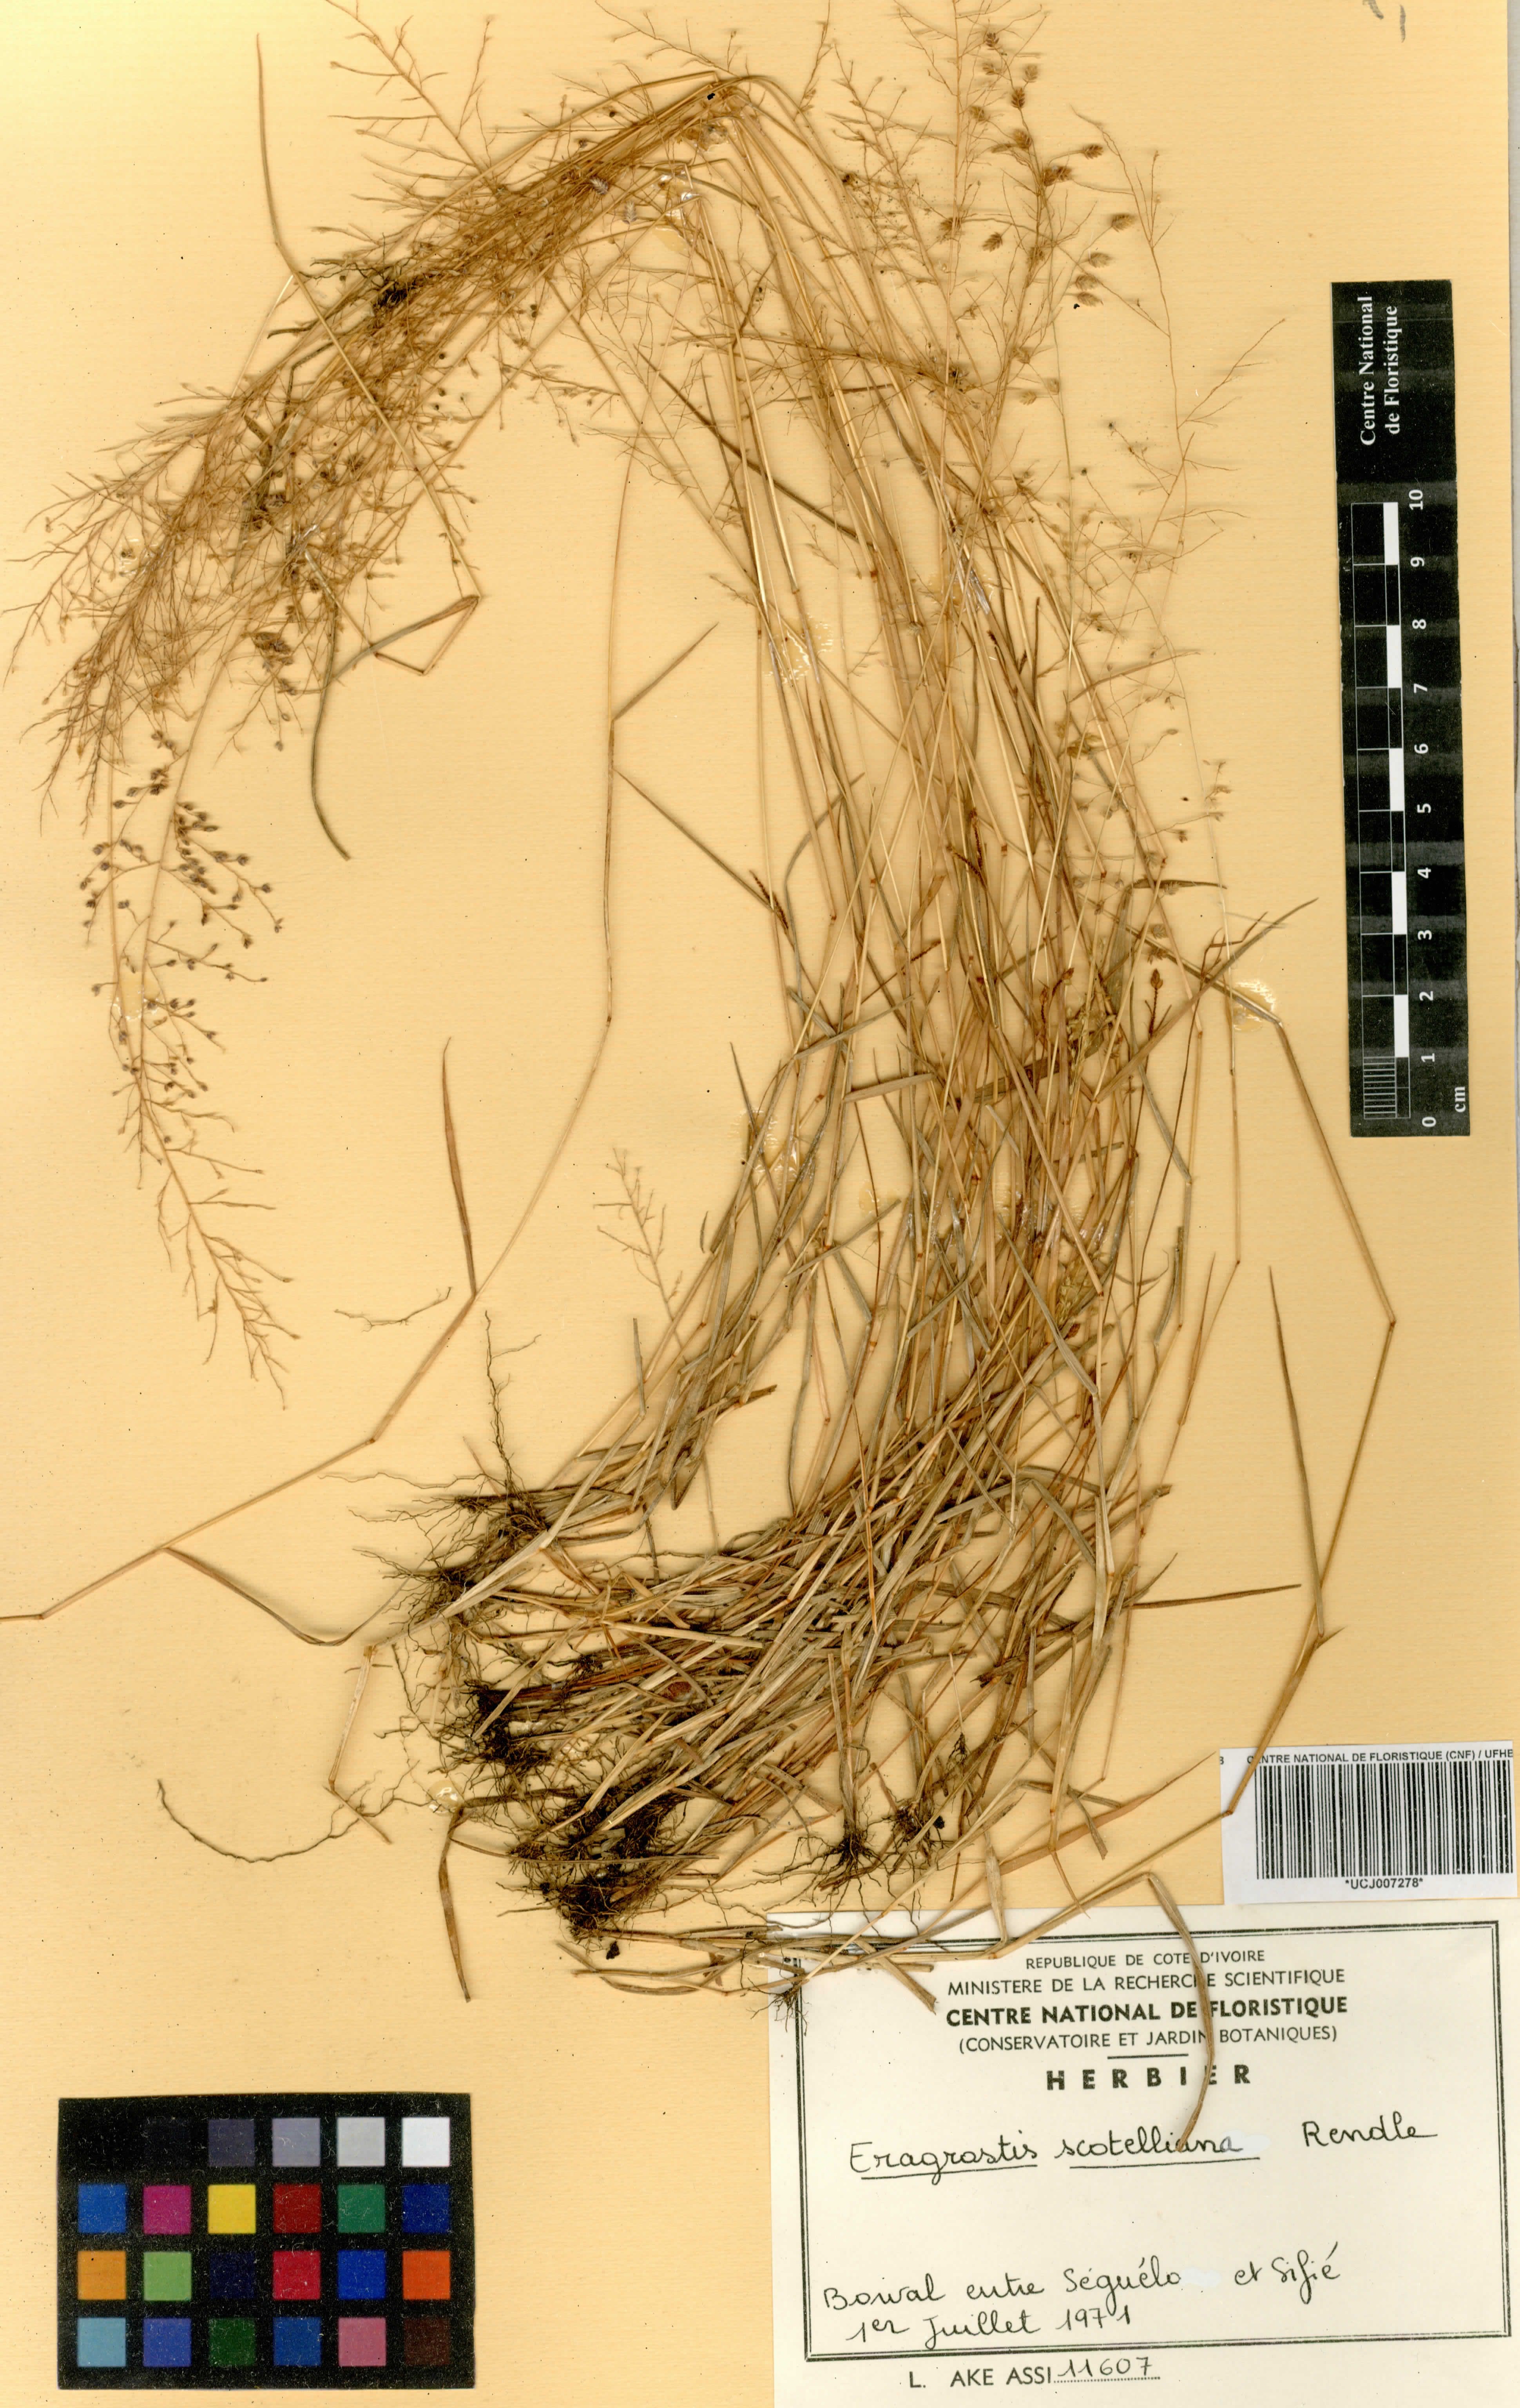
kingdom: Plantae
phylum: Tracheophyta
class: Liliopsida
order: Poales
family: Poaceae
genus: Eragrostis
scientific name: Eragrostis scotelliana
